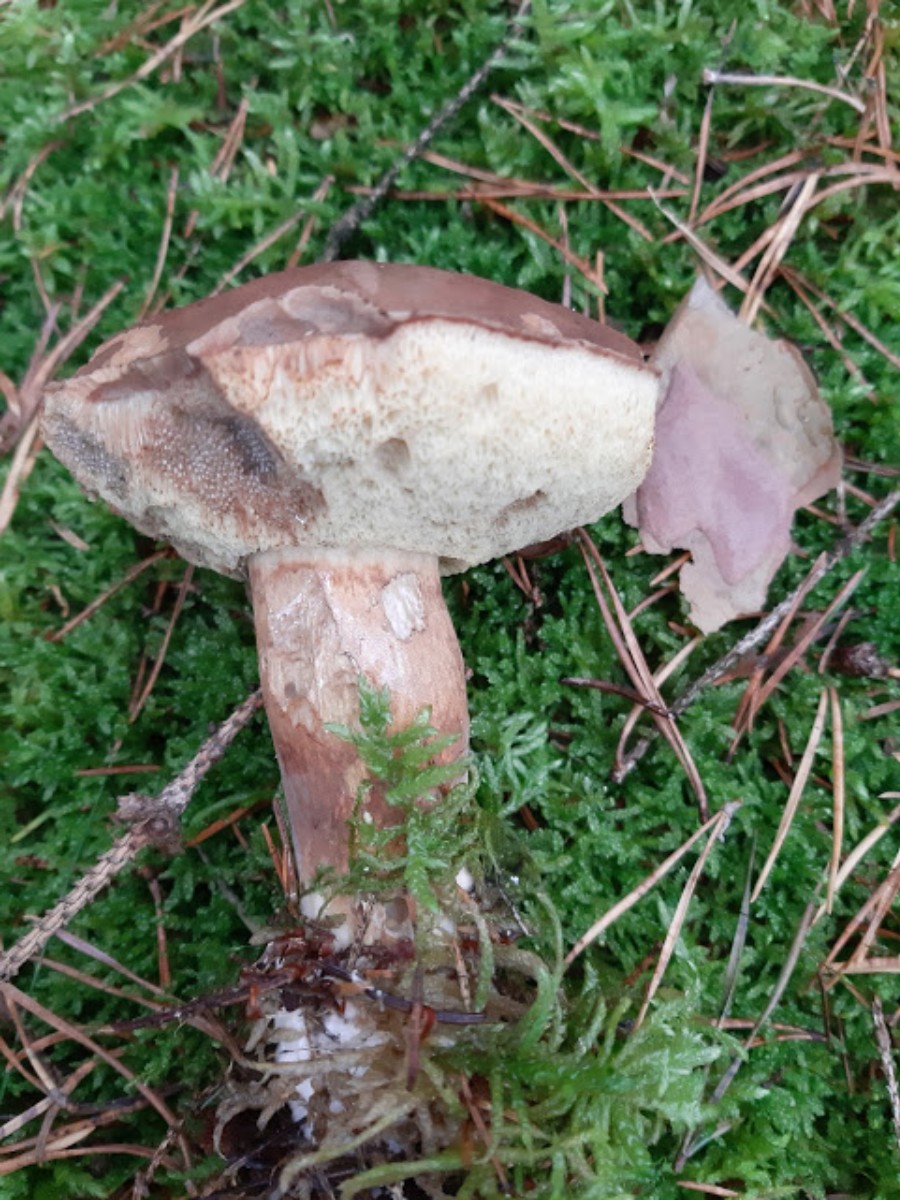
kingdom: Fungi
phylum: Basidiomycota
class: Agaricomycetes
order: Boletales
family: Boletaceae
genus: Imleria
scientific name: Imleria badia
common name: brunstokket rørhat
